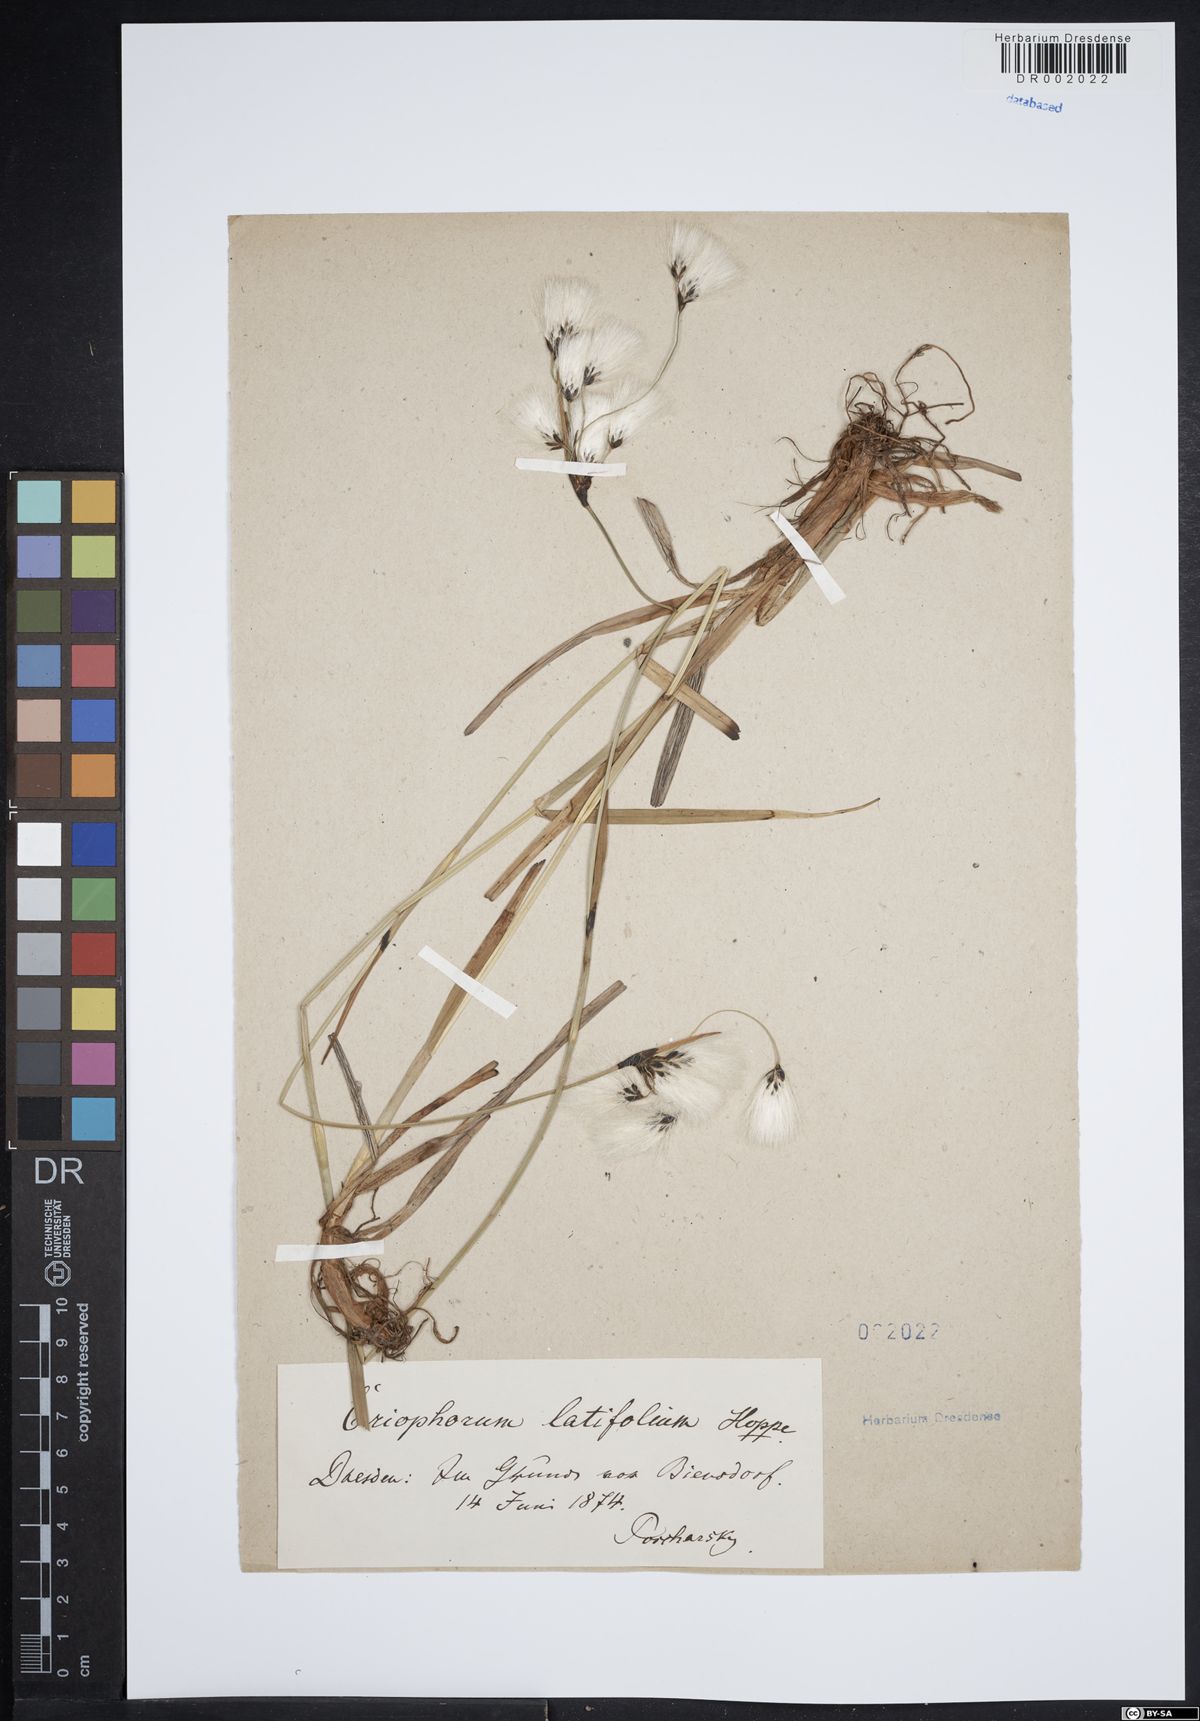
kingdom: Plantae
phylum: Tracheophyta
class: Liliopsida
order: Poales
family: Cyperaceae
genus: Eriophorum
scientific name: Eriophorum latifolium
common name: Broad-leaved cottongrass
